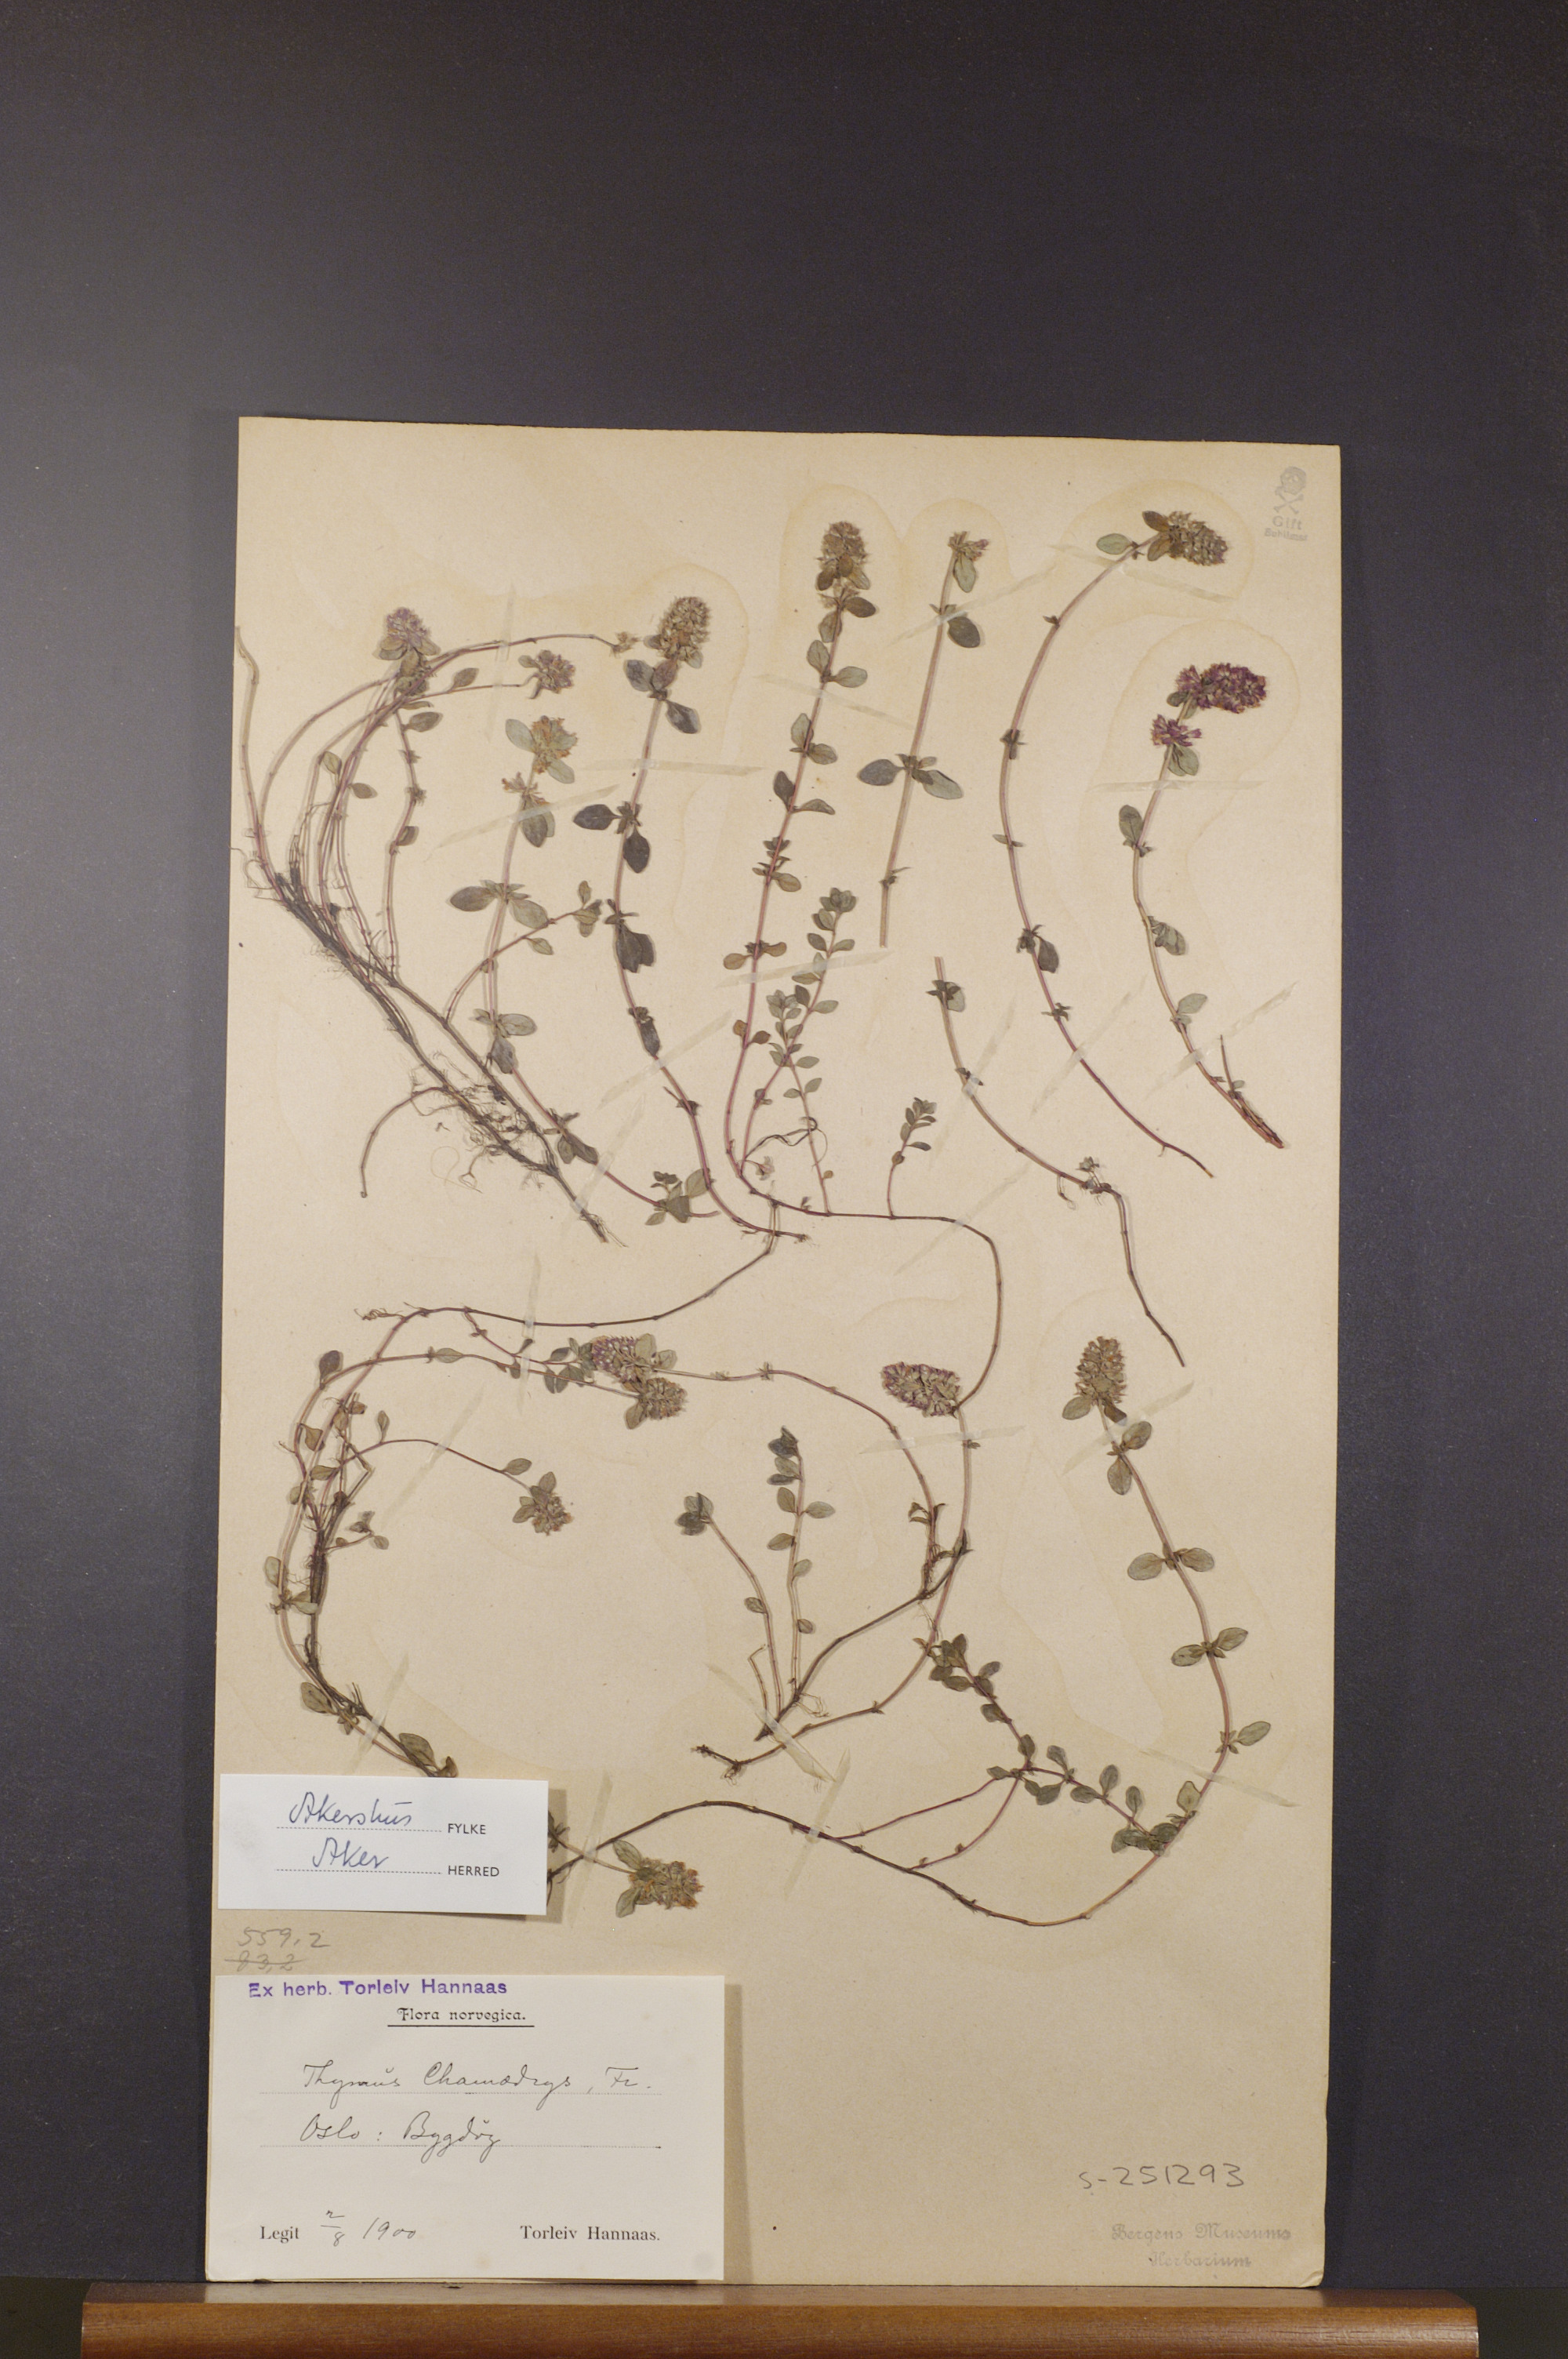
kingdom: Plantae
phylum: Tracheophyta
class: Magnoliopsida
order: Lamiales
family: Lamiaceae
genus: Thymus
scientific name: Thymus pulegioides
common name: Large thyme
